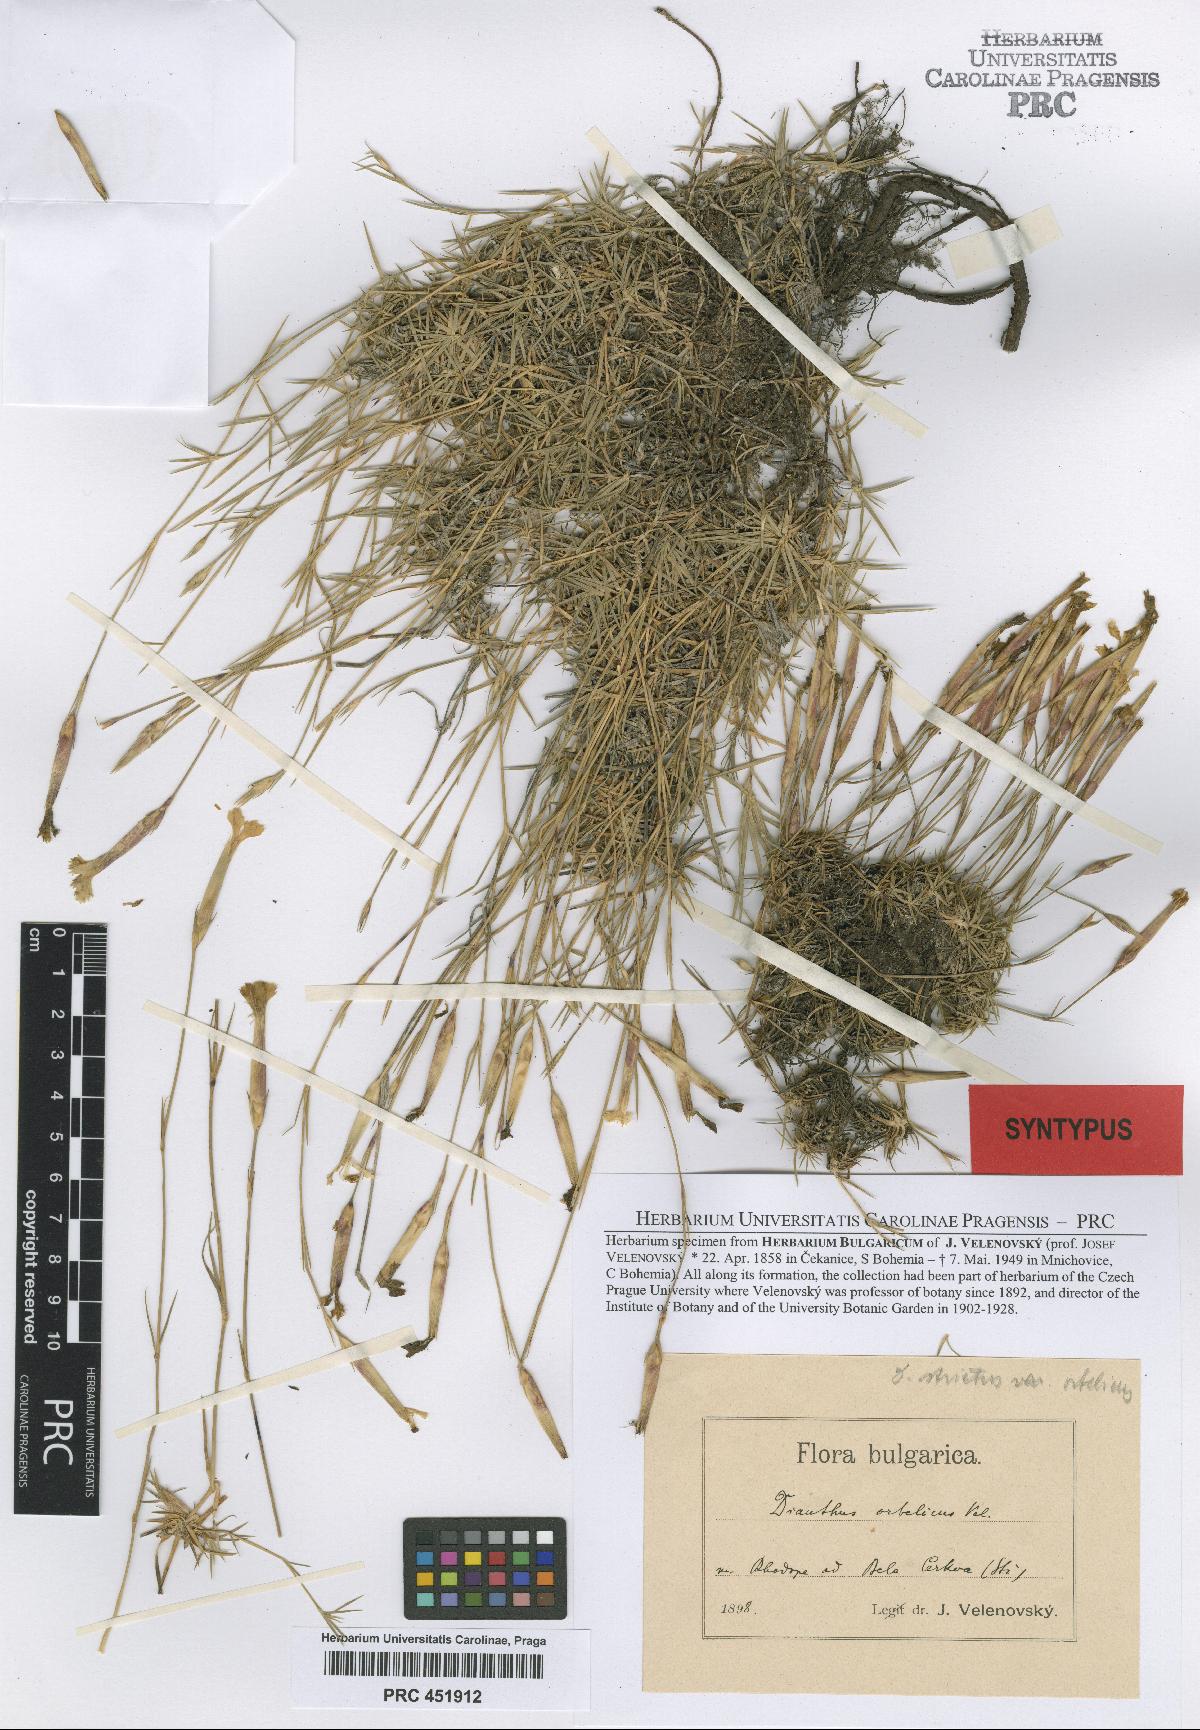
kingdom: Plantae
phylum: Tracheophyta
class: Magnoliopsida
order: Caryophyllales
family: Caryophyllaceae
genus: Dianthus
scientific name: Dianthus petraeus
